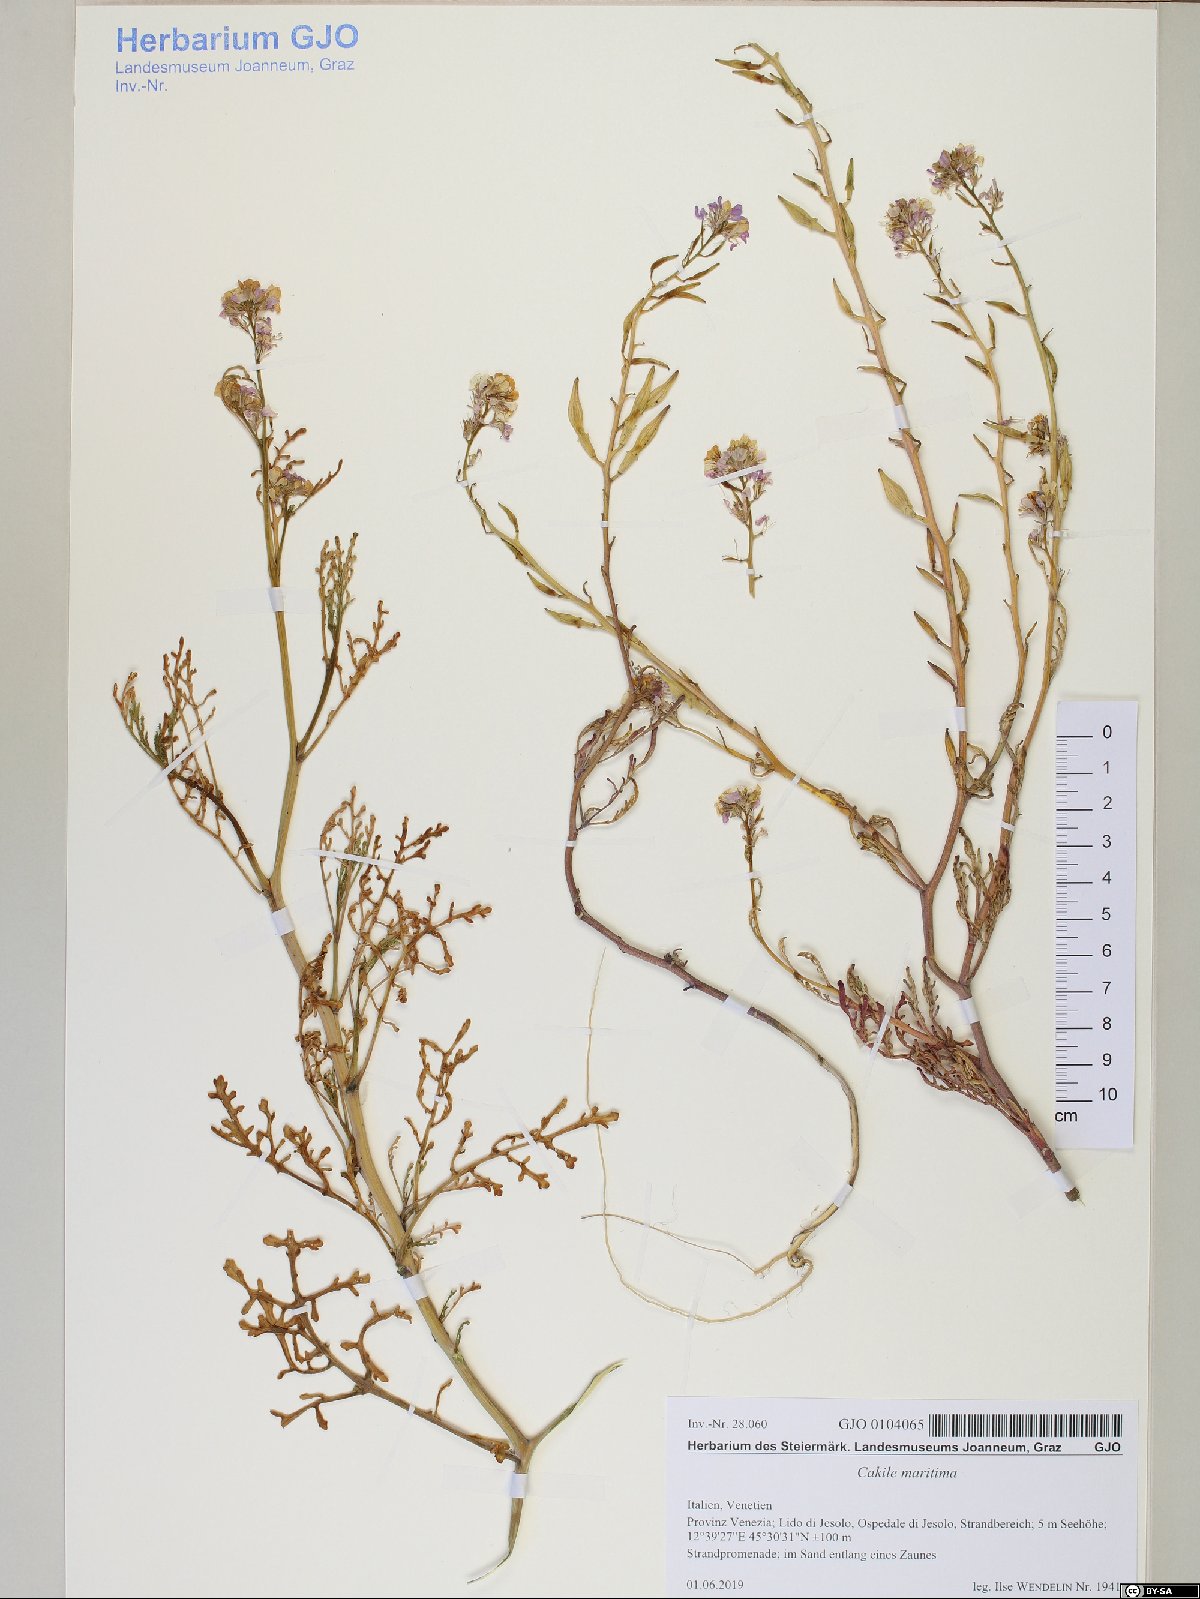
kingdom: Plantae
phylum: Tracheophyta
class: Magnoliopsida
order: Brassicales
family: Brassicaceae
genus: Cakile
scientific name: Cakile maritima
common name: Sea rocket
